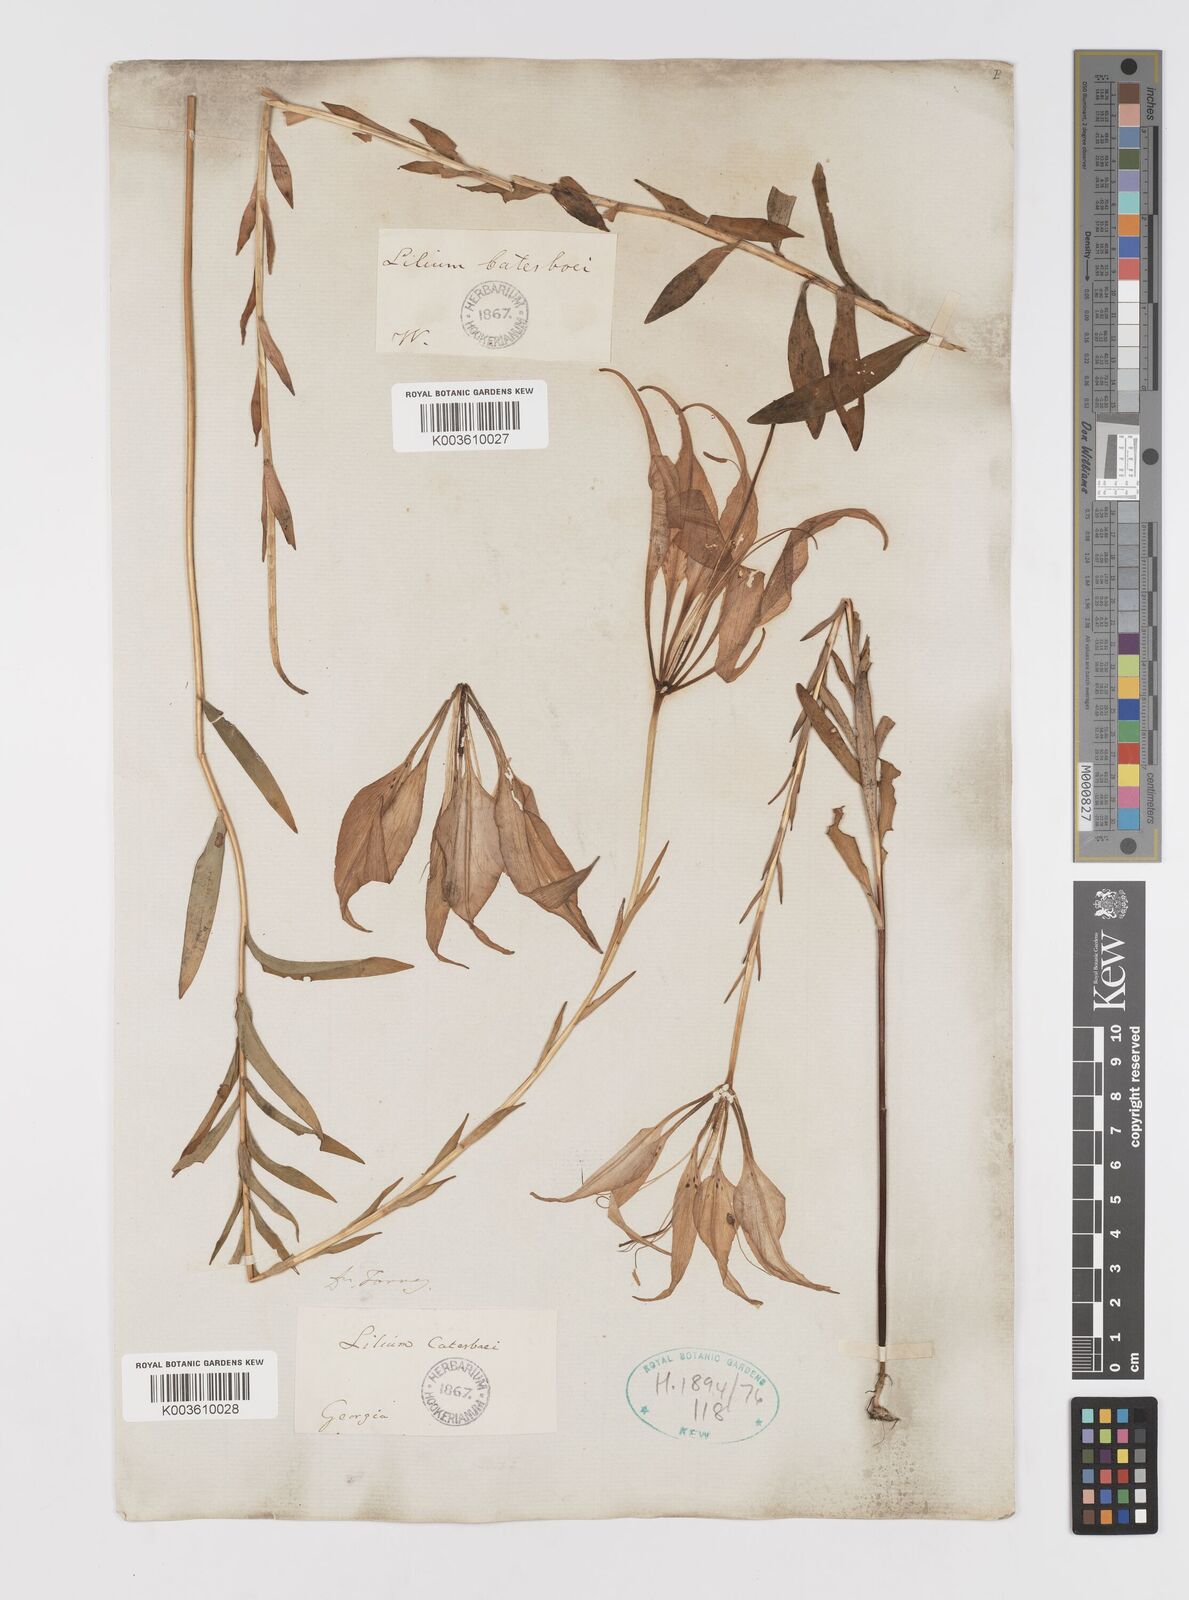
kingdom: Plantae
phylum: Tracheophyta
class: Liliopsida
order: Liliales
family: Liliaceae
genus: Lilium
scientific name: Lilium catesbaei
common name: Catesby's lily
